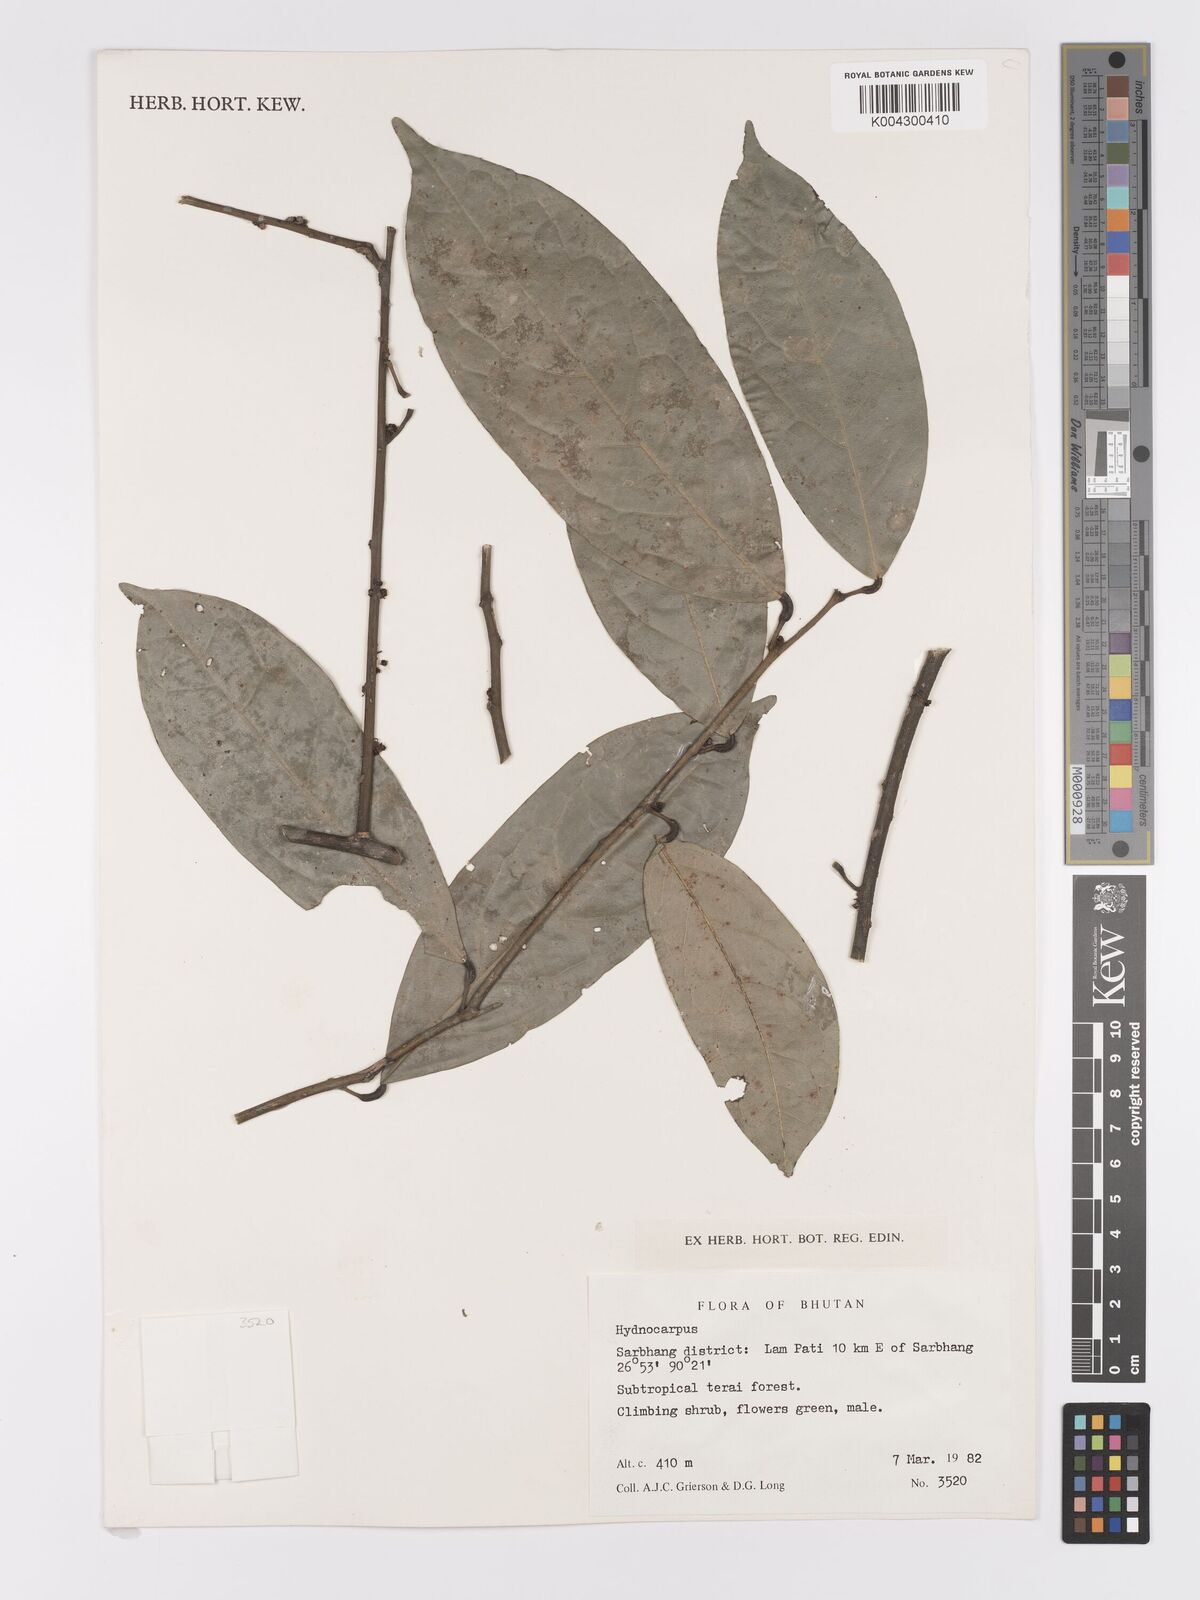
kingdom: Plantae
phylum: Tracheophyta
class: Magnoliopsida
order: Malpighiales
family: Achariaceae
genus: Hydnocarpus
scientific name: Hydnocarpus
